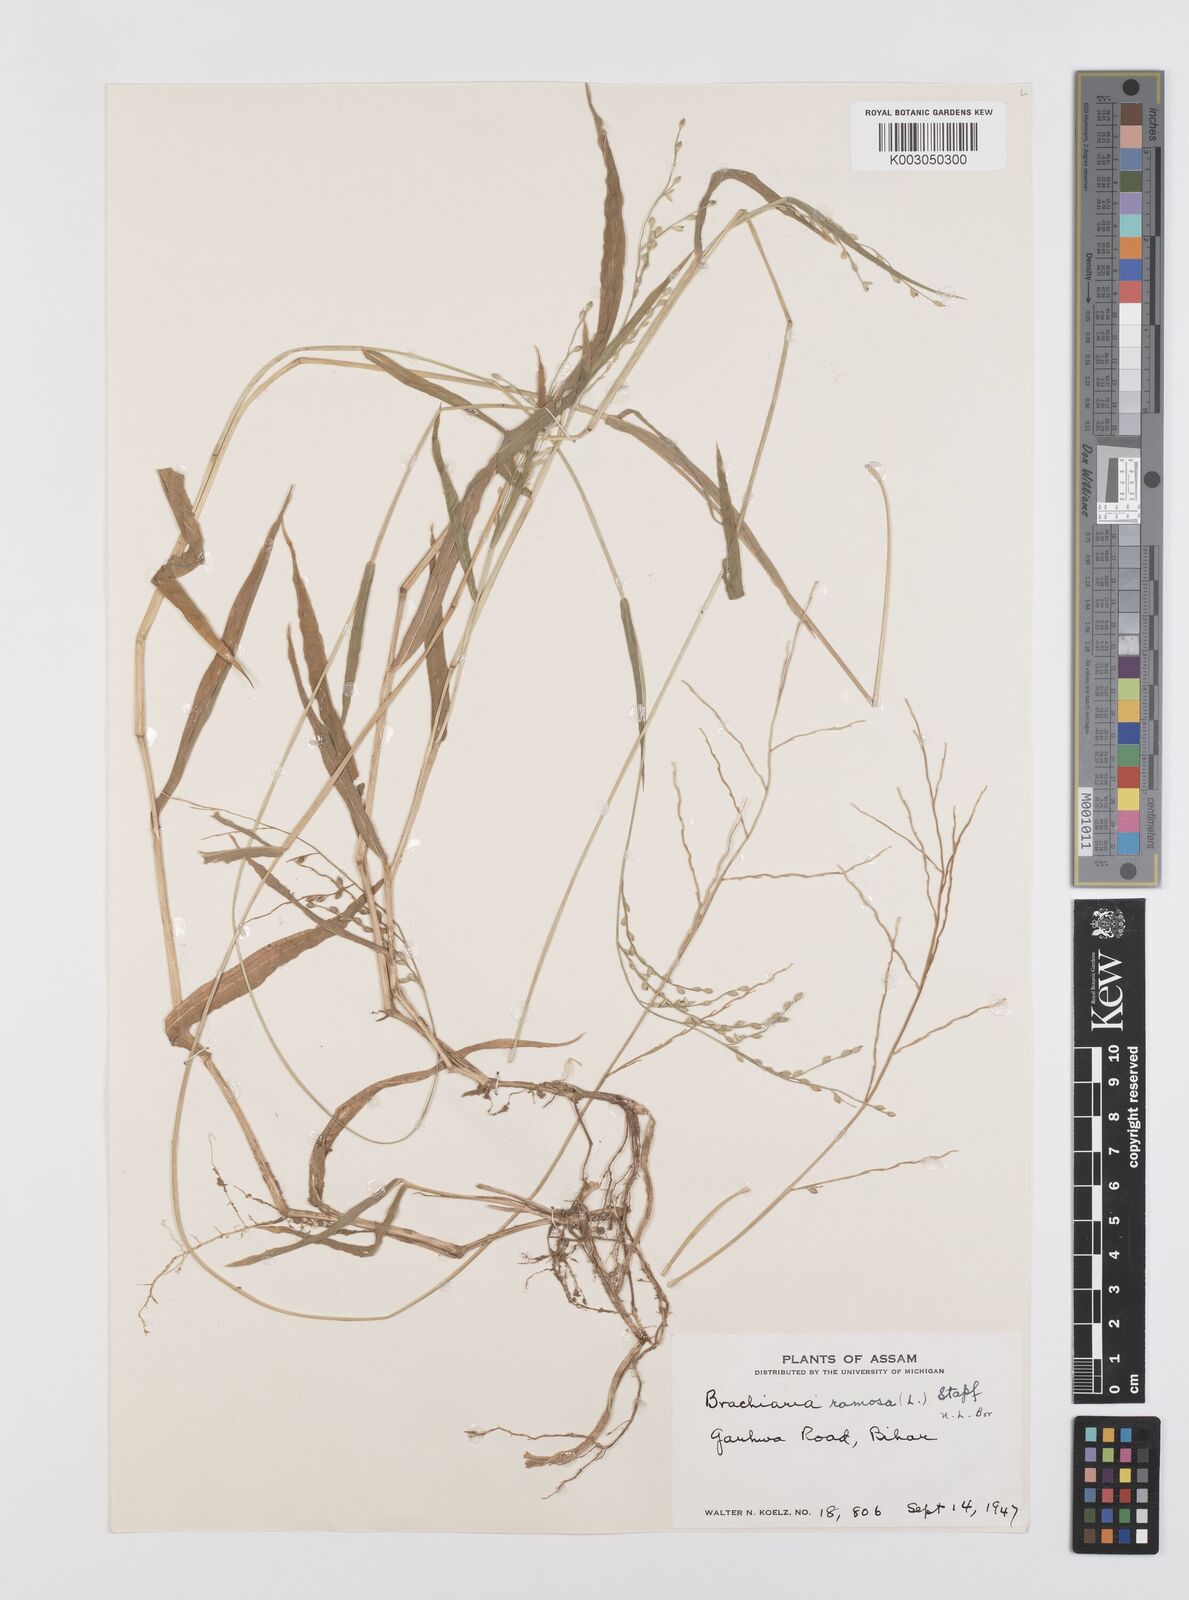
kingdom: Plantae
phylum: Tracheophyta
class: Liliopsida
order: Poales
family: Poaceae
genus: Urochloa
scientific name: Urochloa ramosa
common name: Browntop millet
